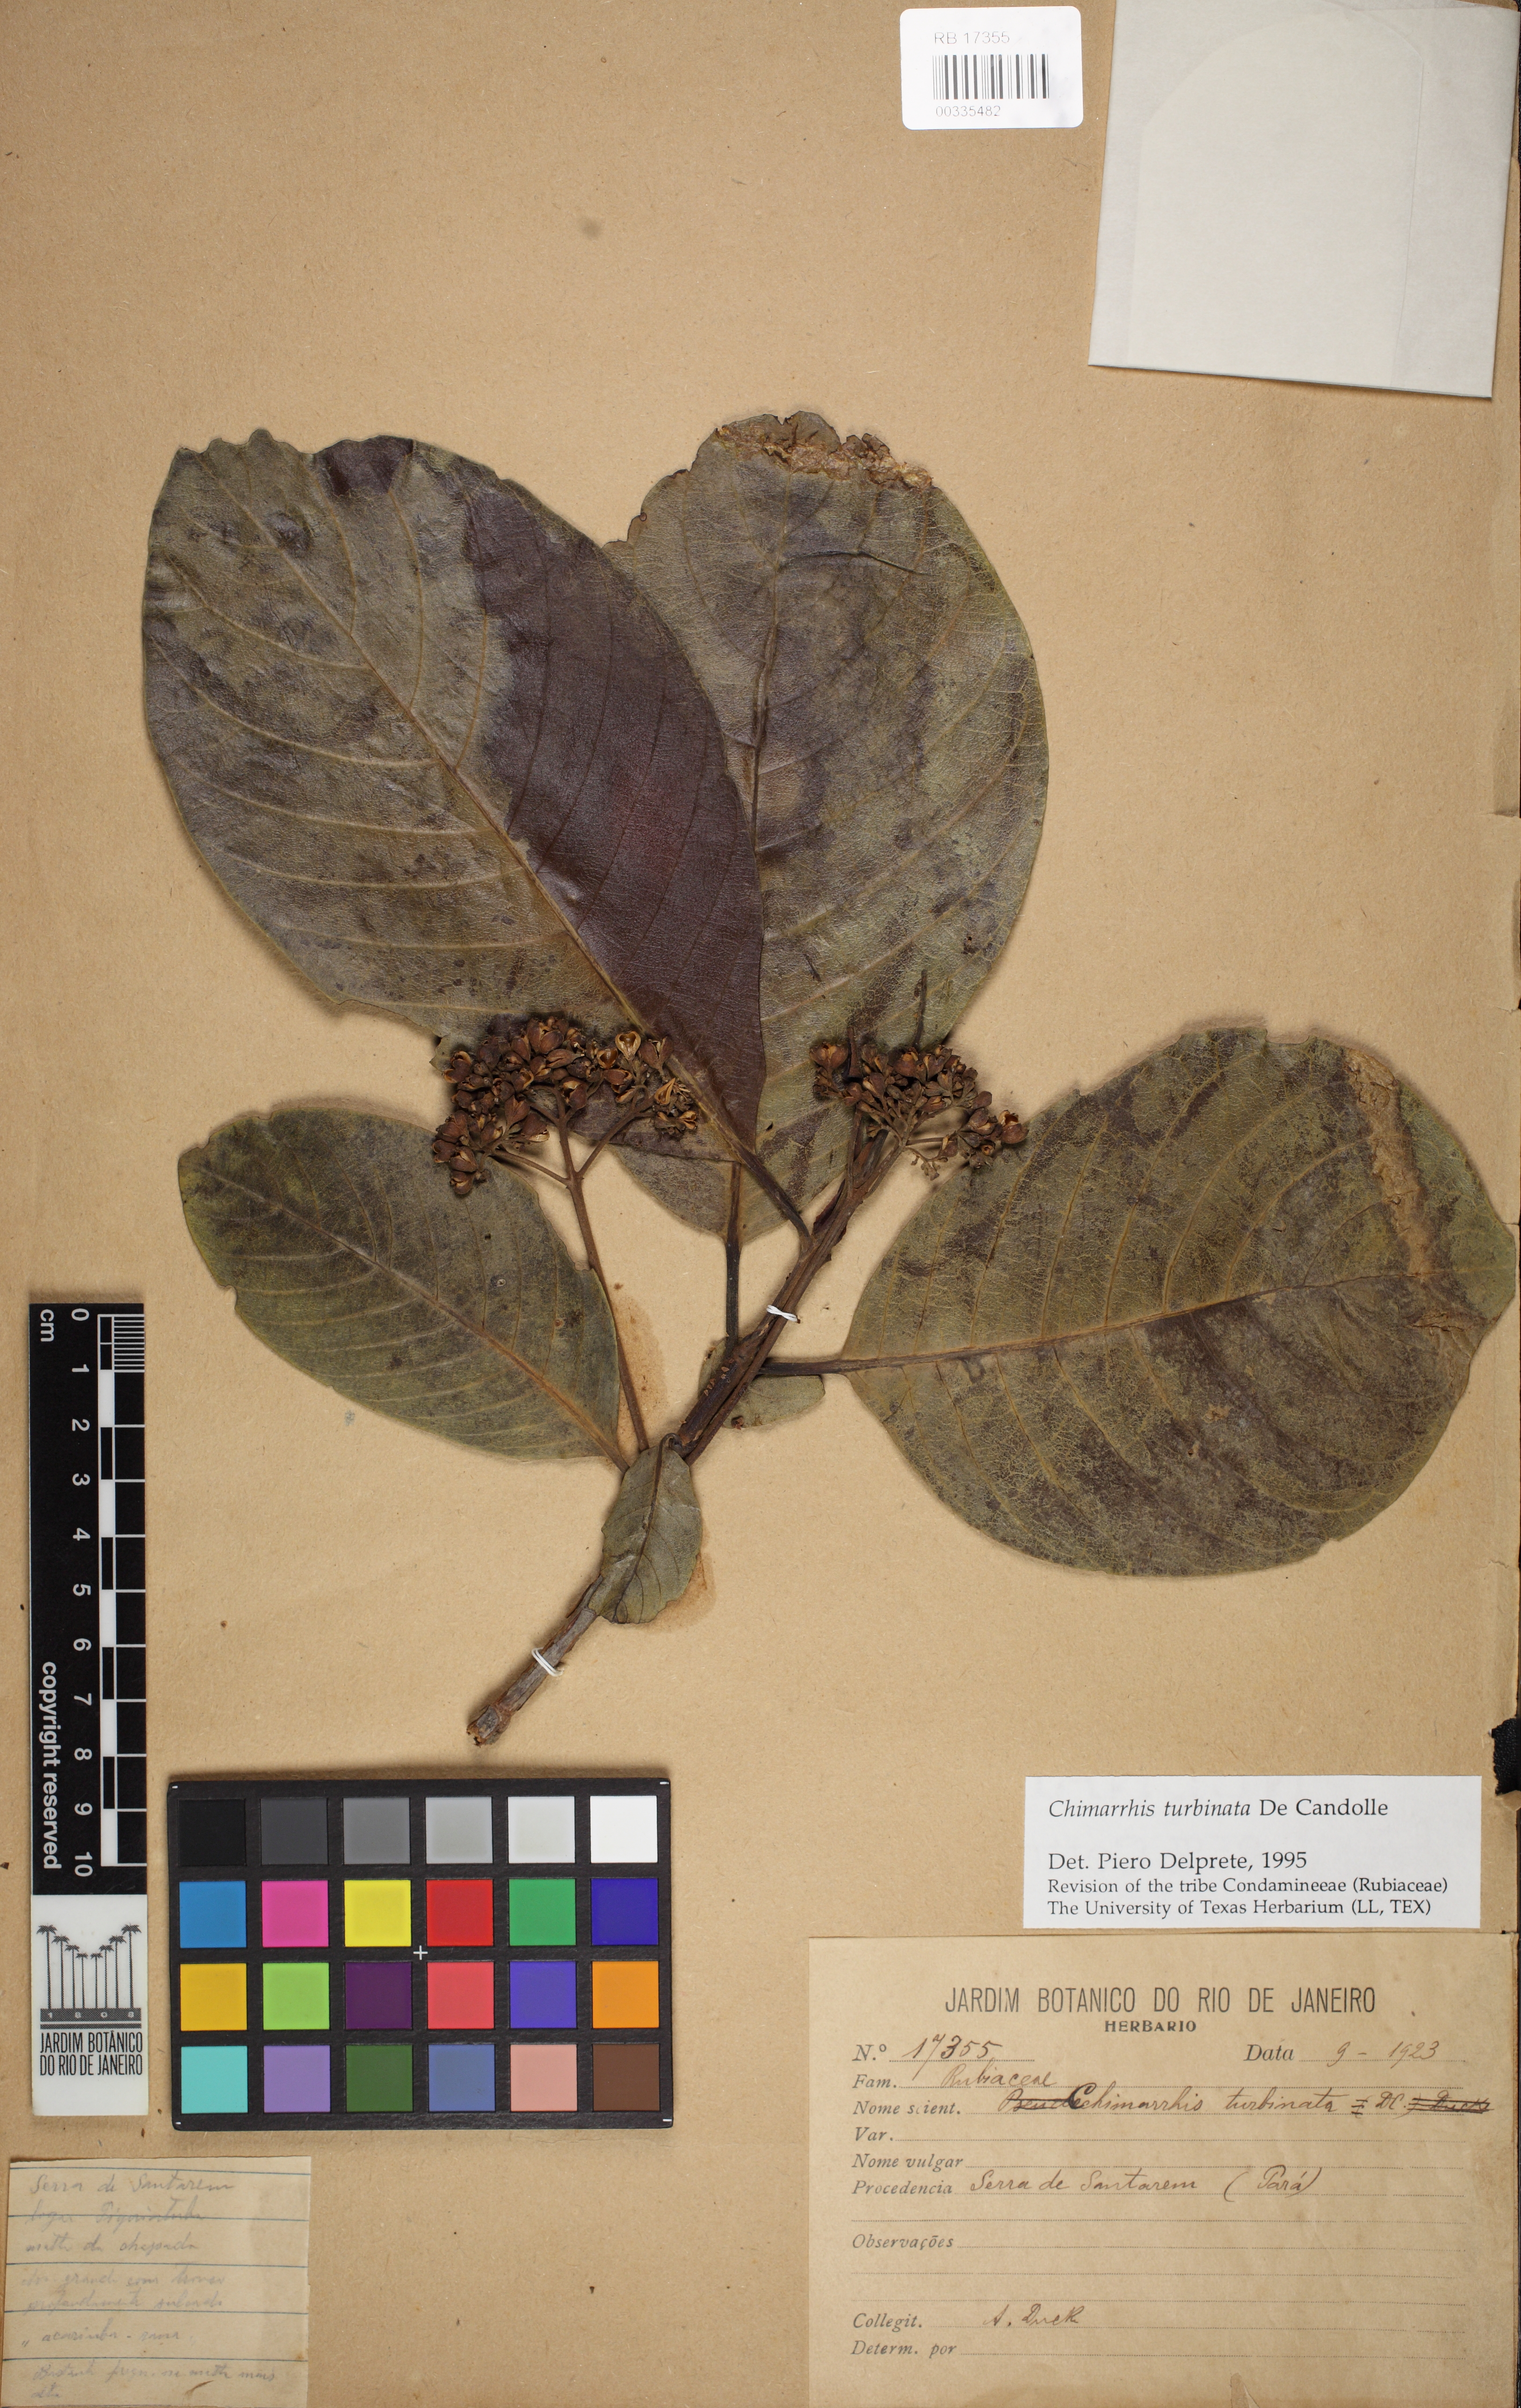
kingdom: Plantae
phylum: Tracheophyta
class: Magnoliopsida
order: Gentianales
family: Rubiaceae
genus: Chimarrhis
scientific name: Chimarrhis turbinata
